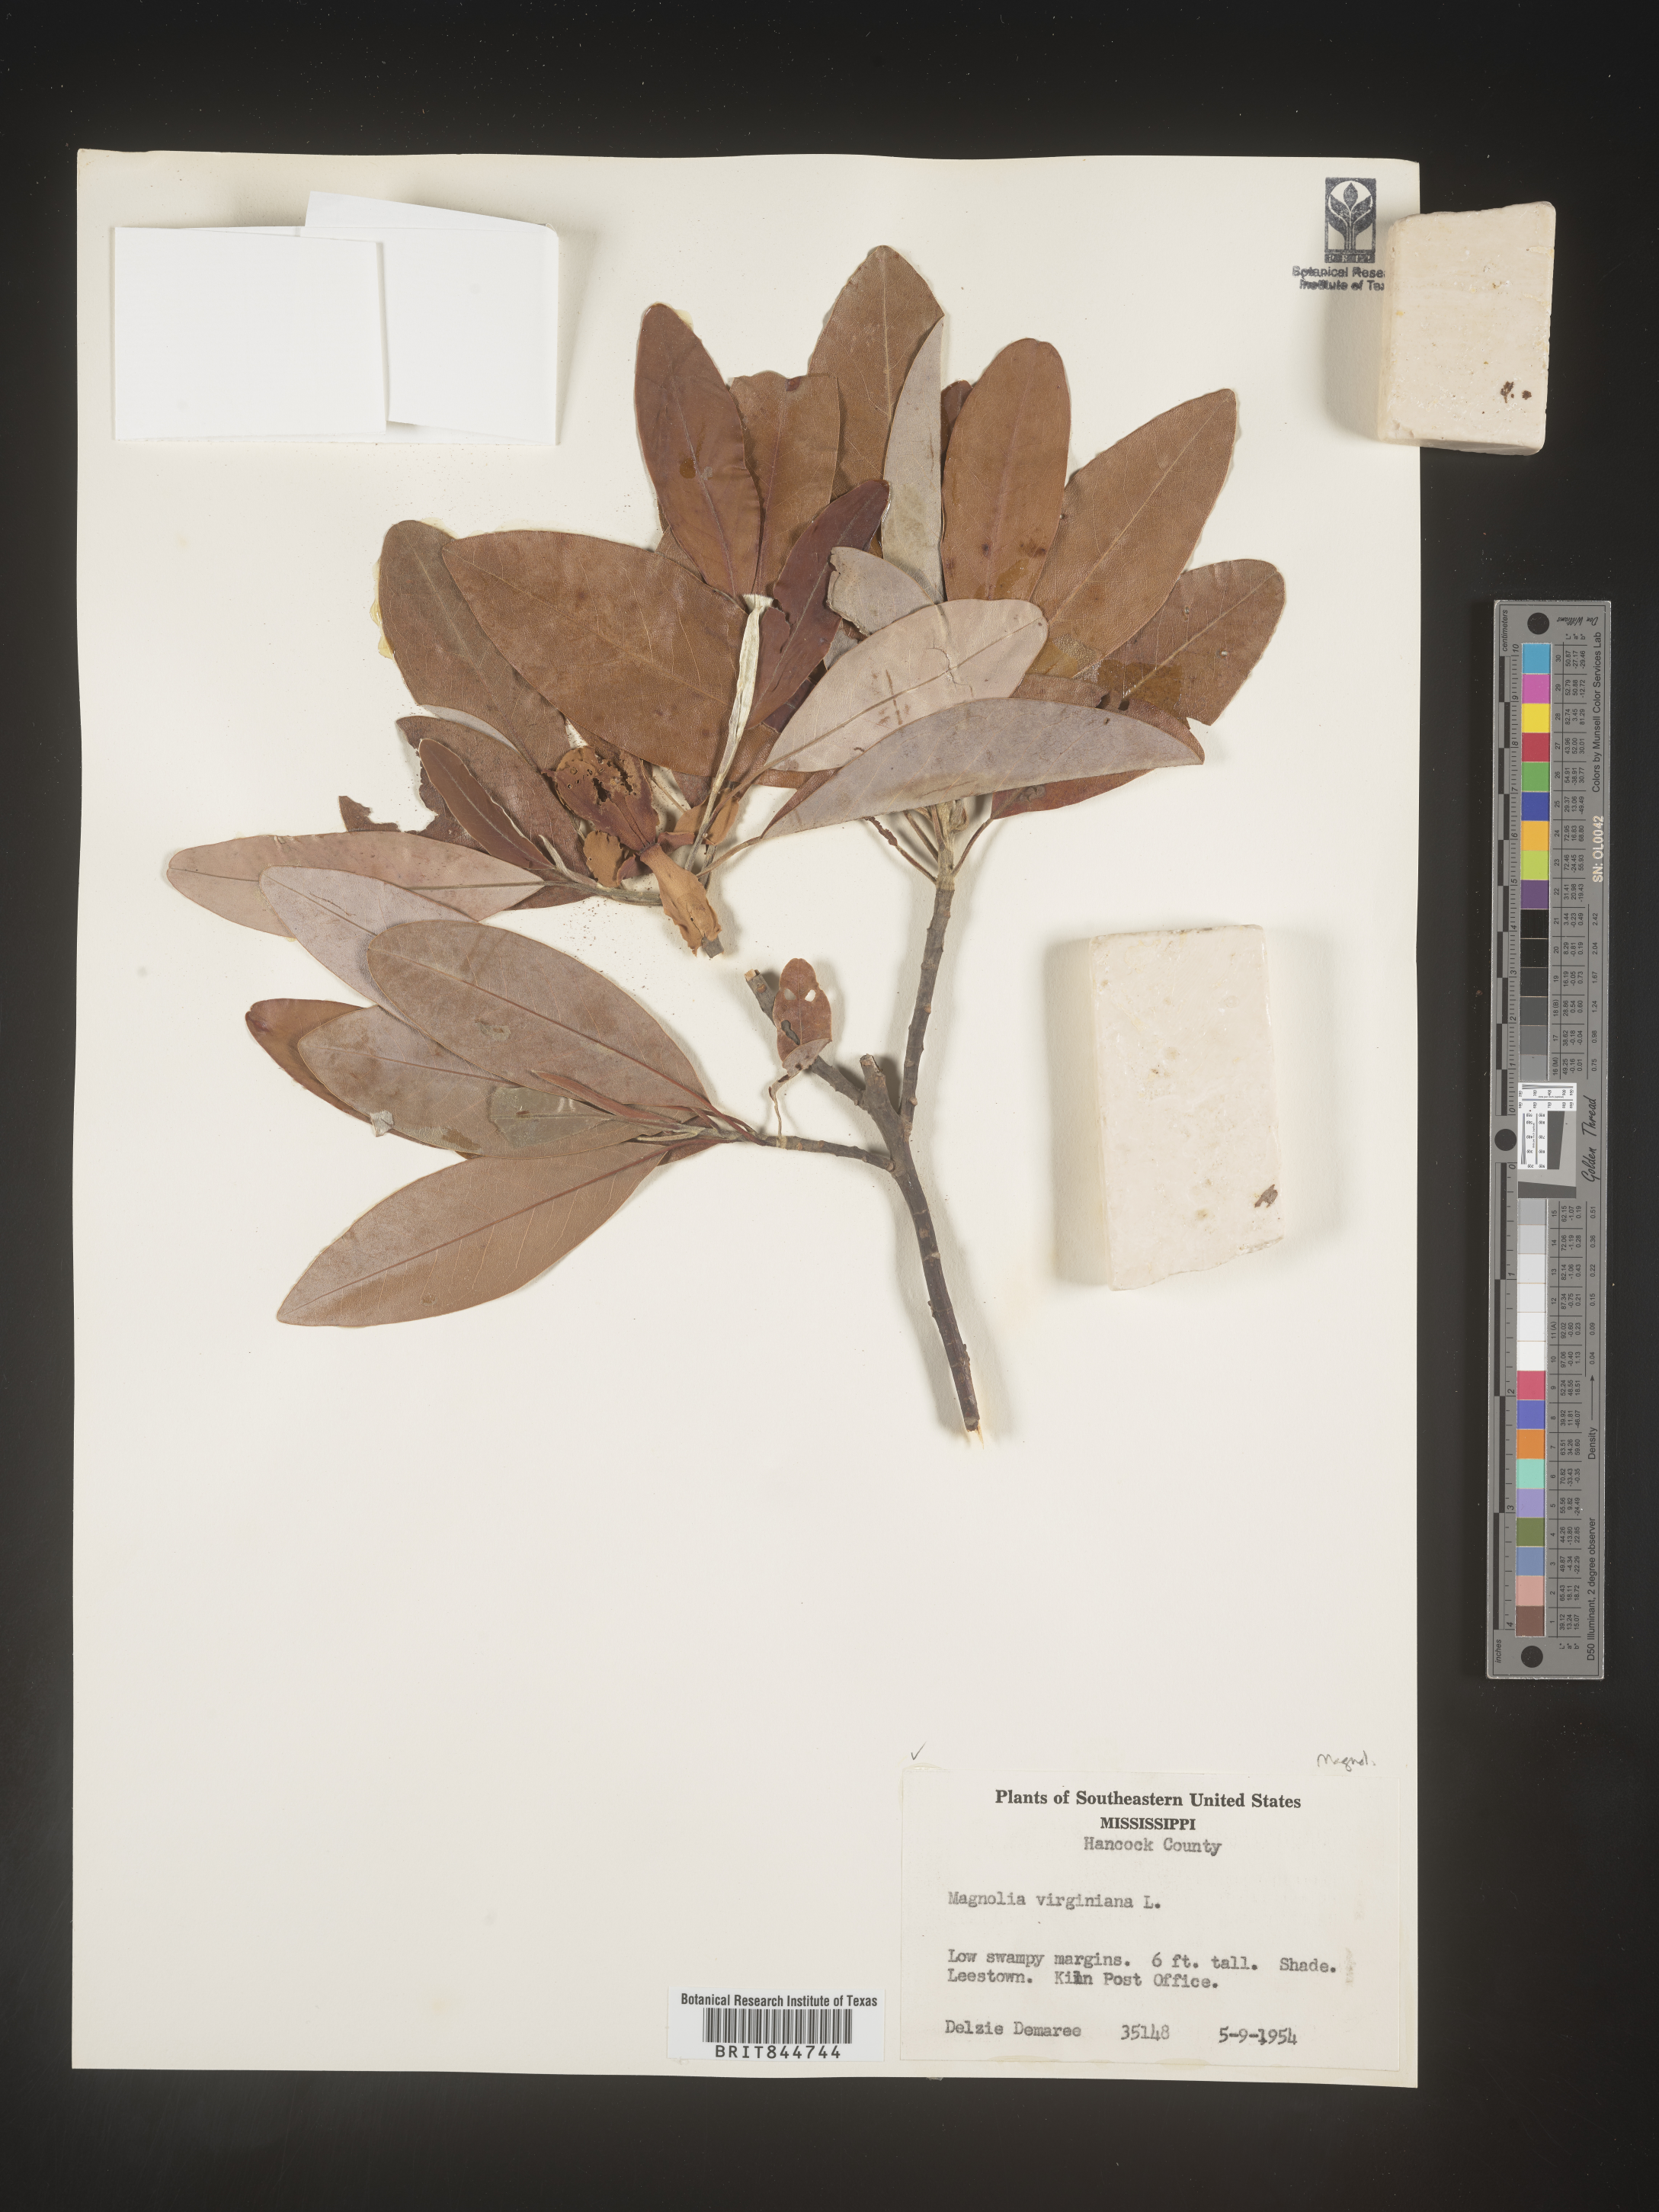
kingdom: Plantae
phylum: Tracheophyta
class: Magnoliopsida
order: Magnoliales
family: Magnoliaceae
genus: Magnolia
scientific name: Magnolia virginiana
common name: Swamp bay
